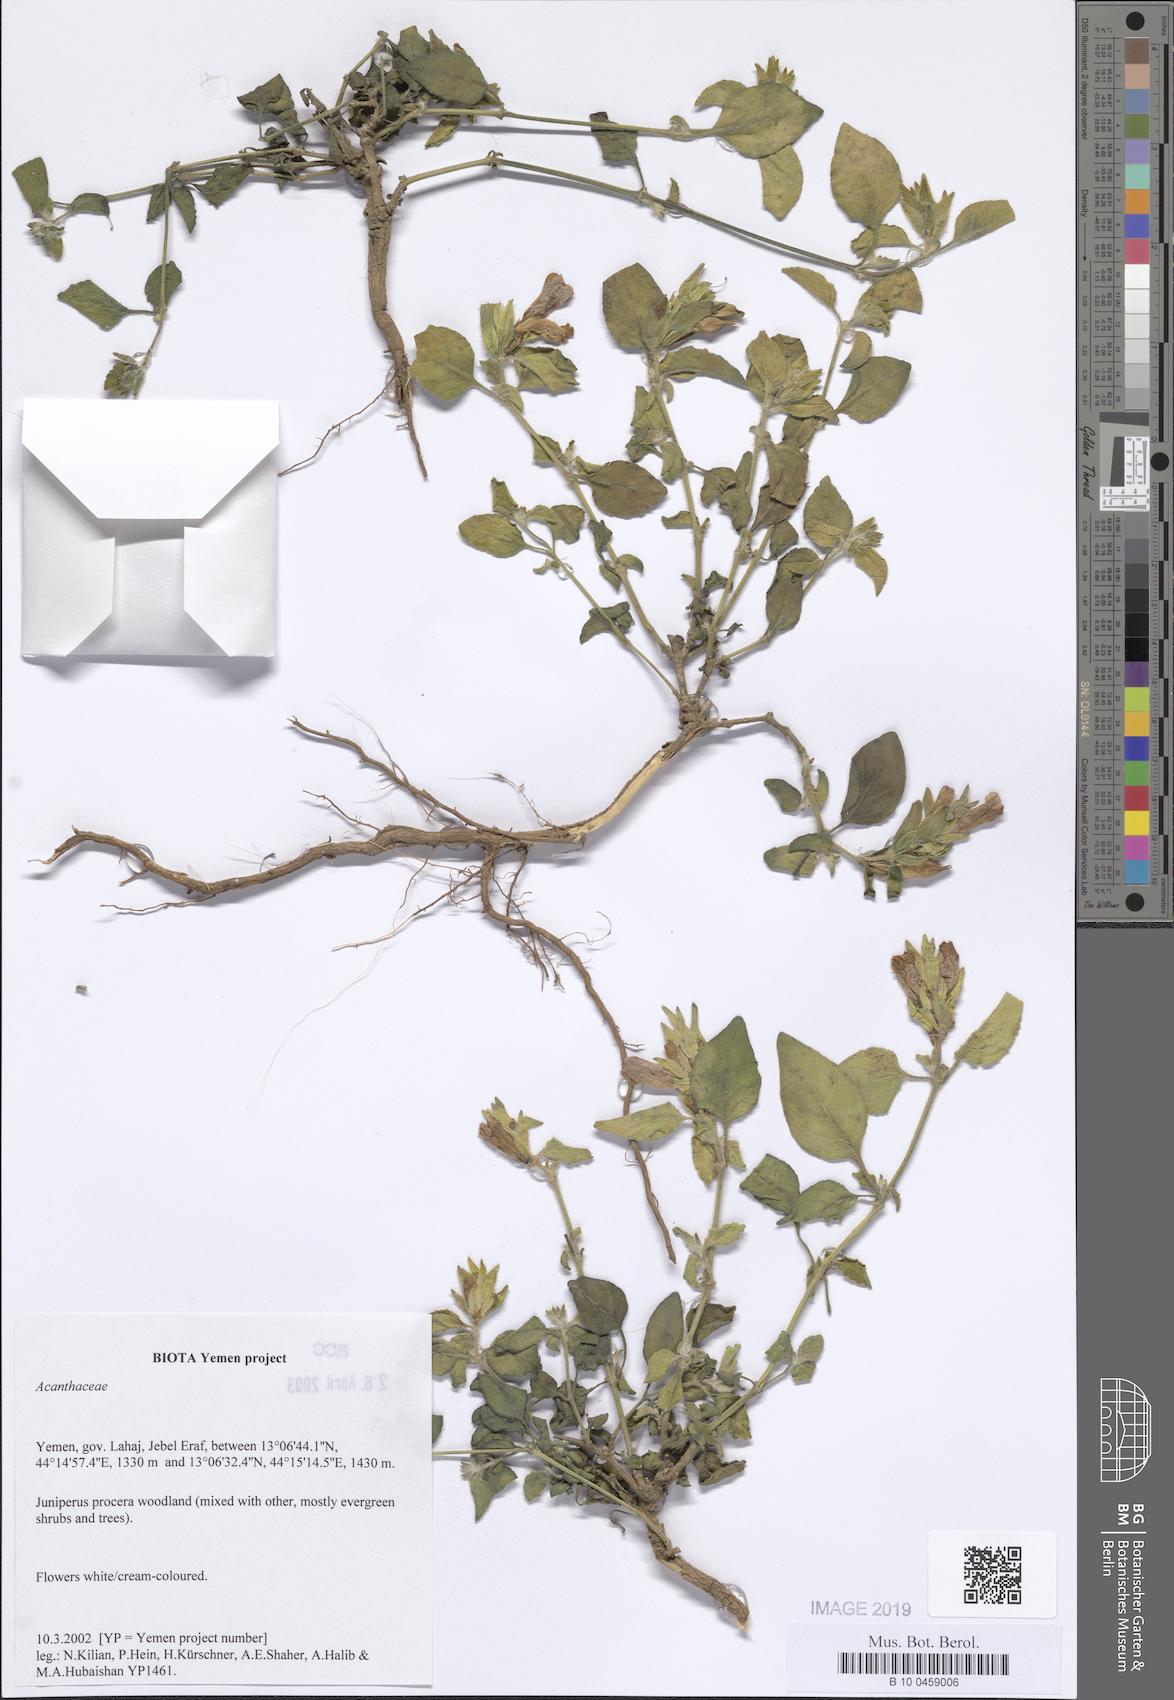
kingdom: Plantae
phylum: Tracheophyta
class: Magnoliopsida
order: Lamiales
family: Acanthaceae
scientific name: Acanthaceae
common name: Acanthaceae
